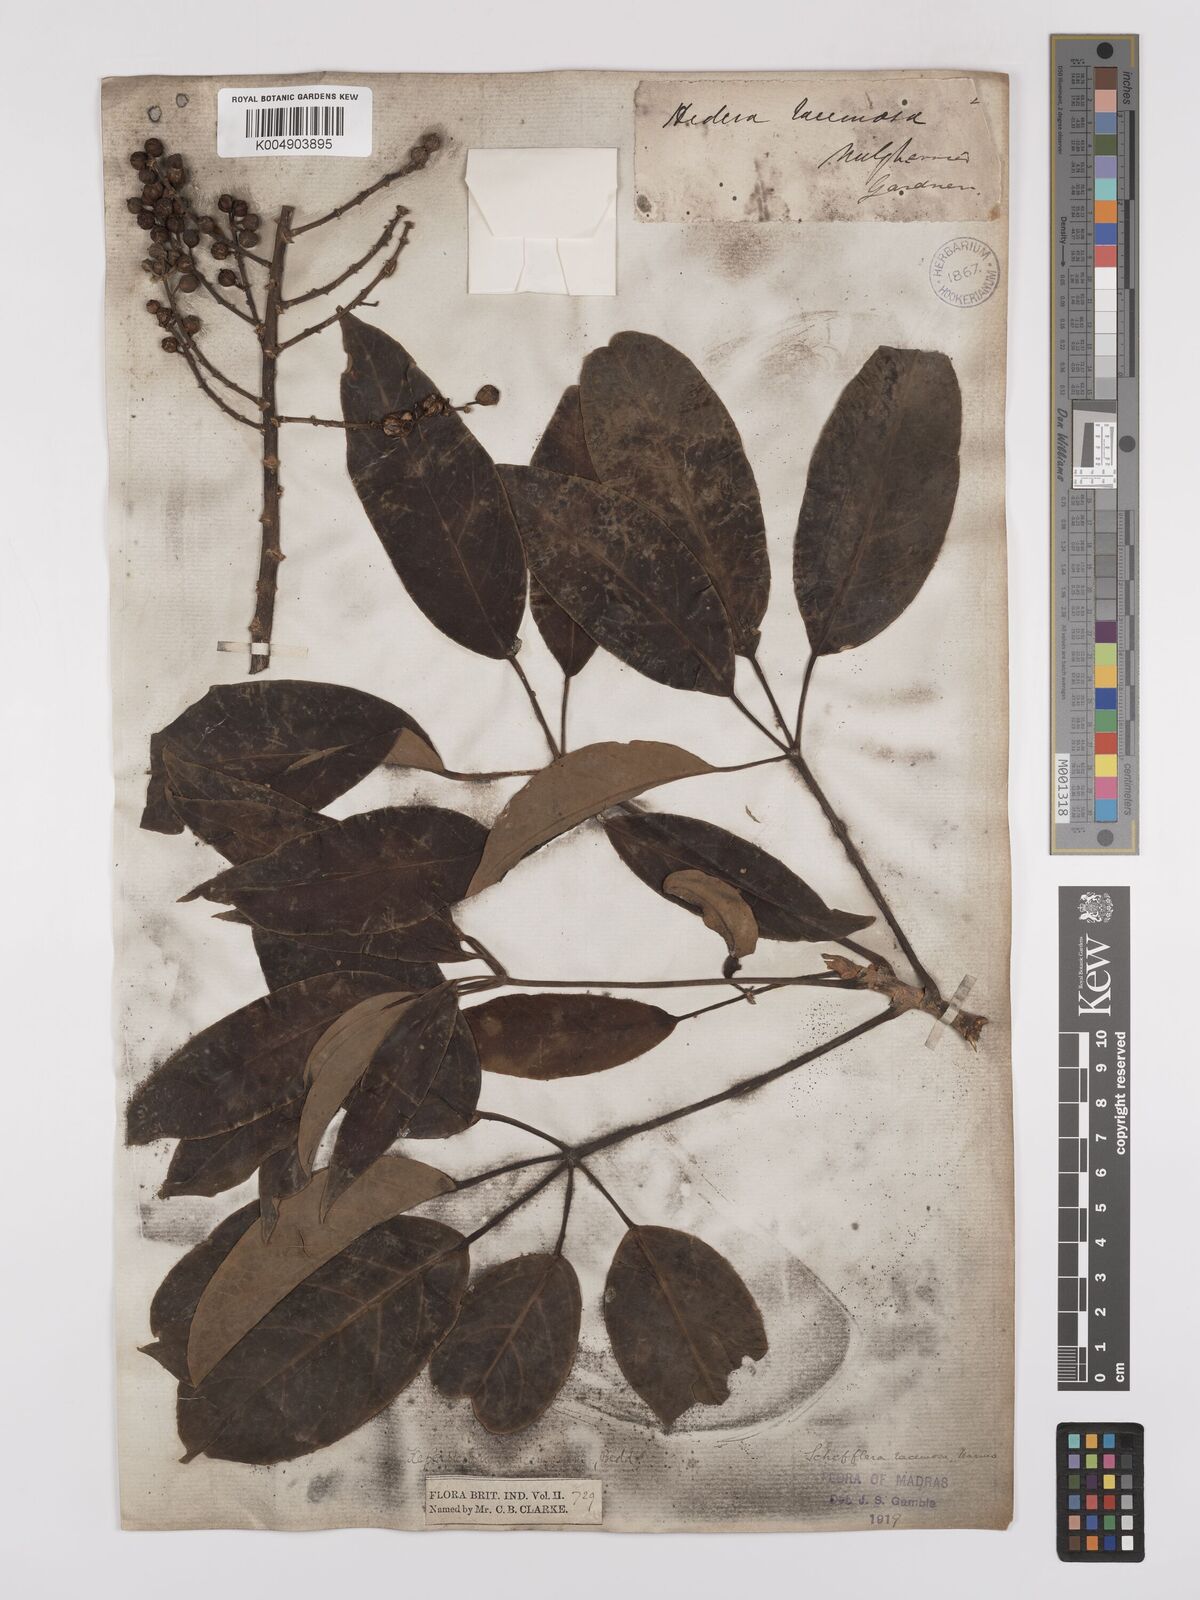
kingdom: Plantae
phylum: Tracheophyta
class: Magnoliopsida
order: Apiales
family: Araliaceae
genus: Heptapleurum
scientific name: Heptapleurum racemosum
